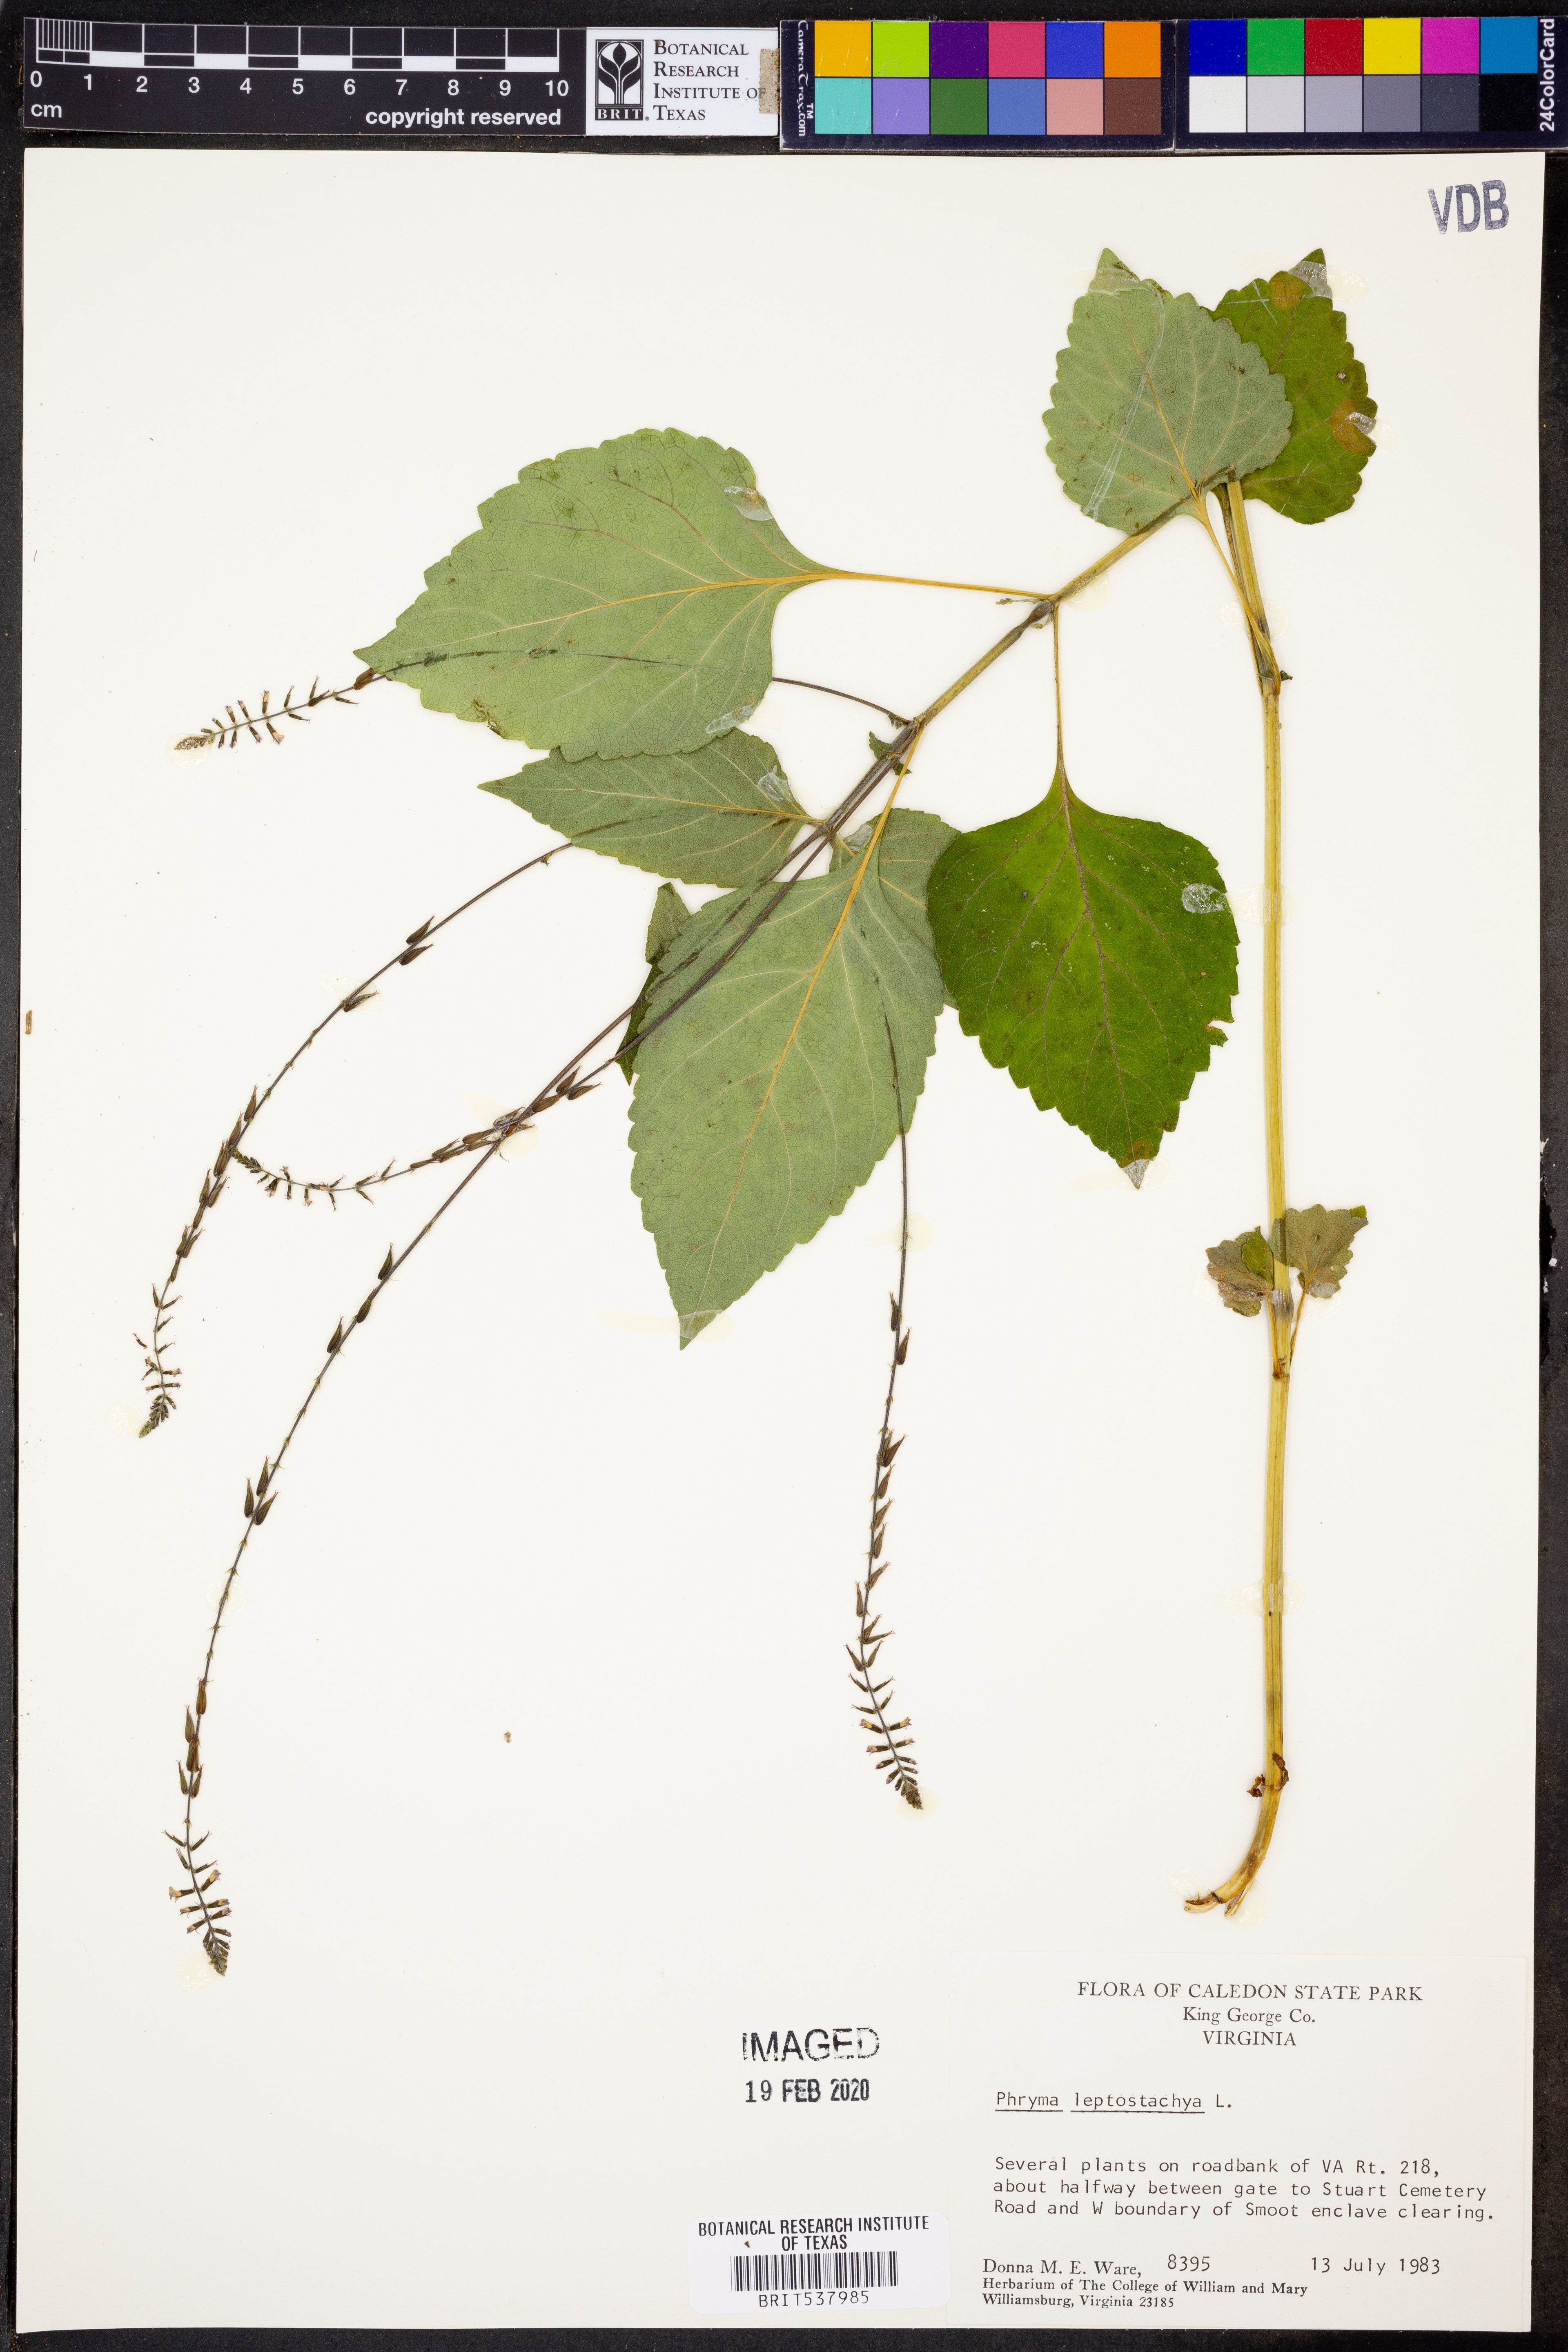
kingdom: Plantae
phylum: Tracheophyta
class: Magnoliopsida
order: Lamiales
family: Phrymaceae
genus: Phryma
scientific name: Phryma leptostachya
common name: American lopseed
